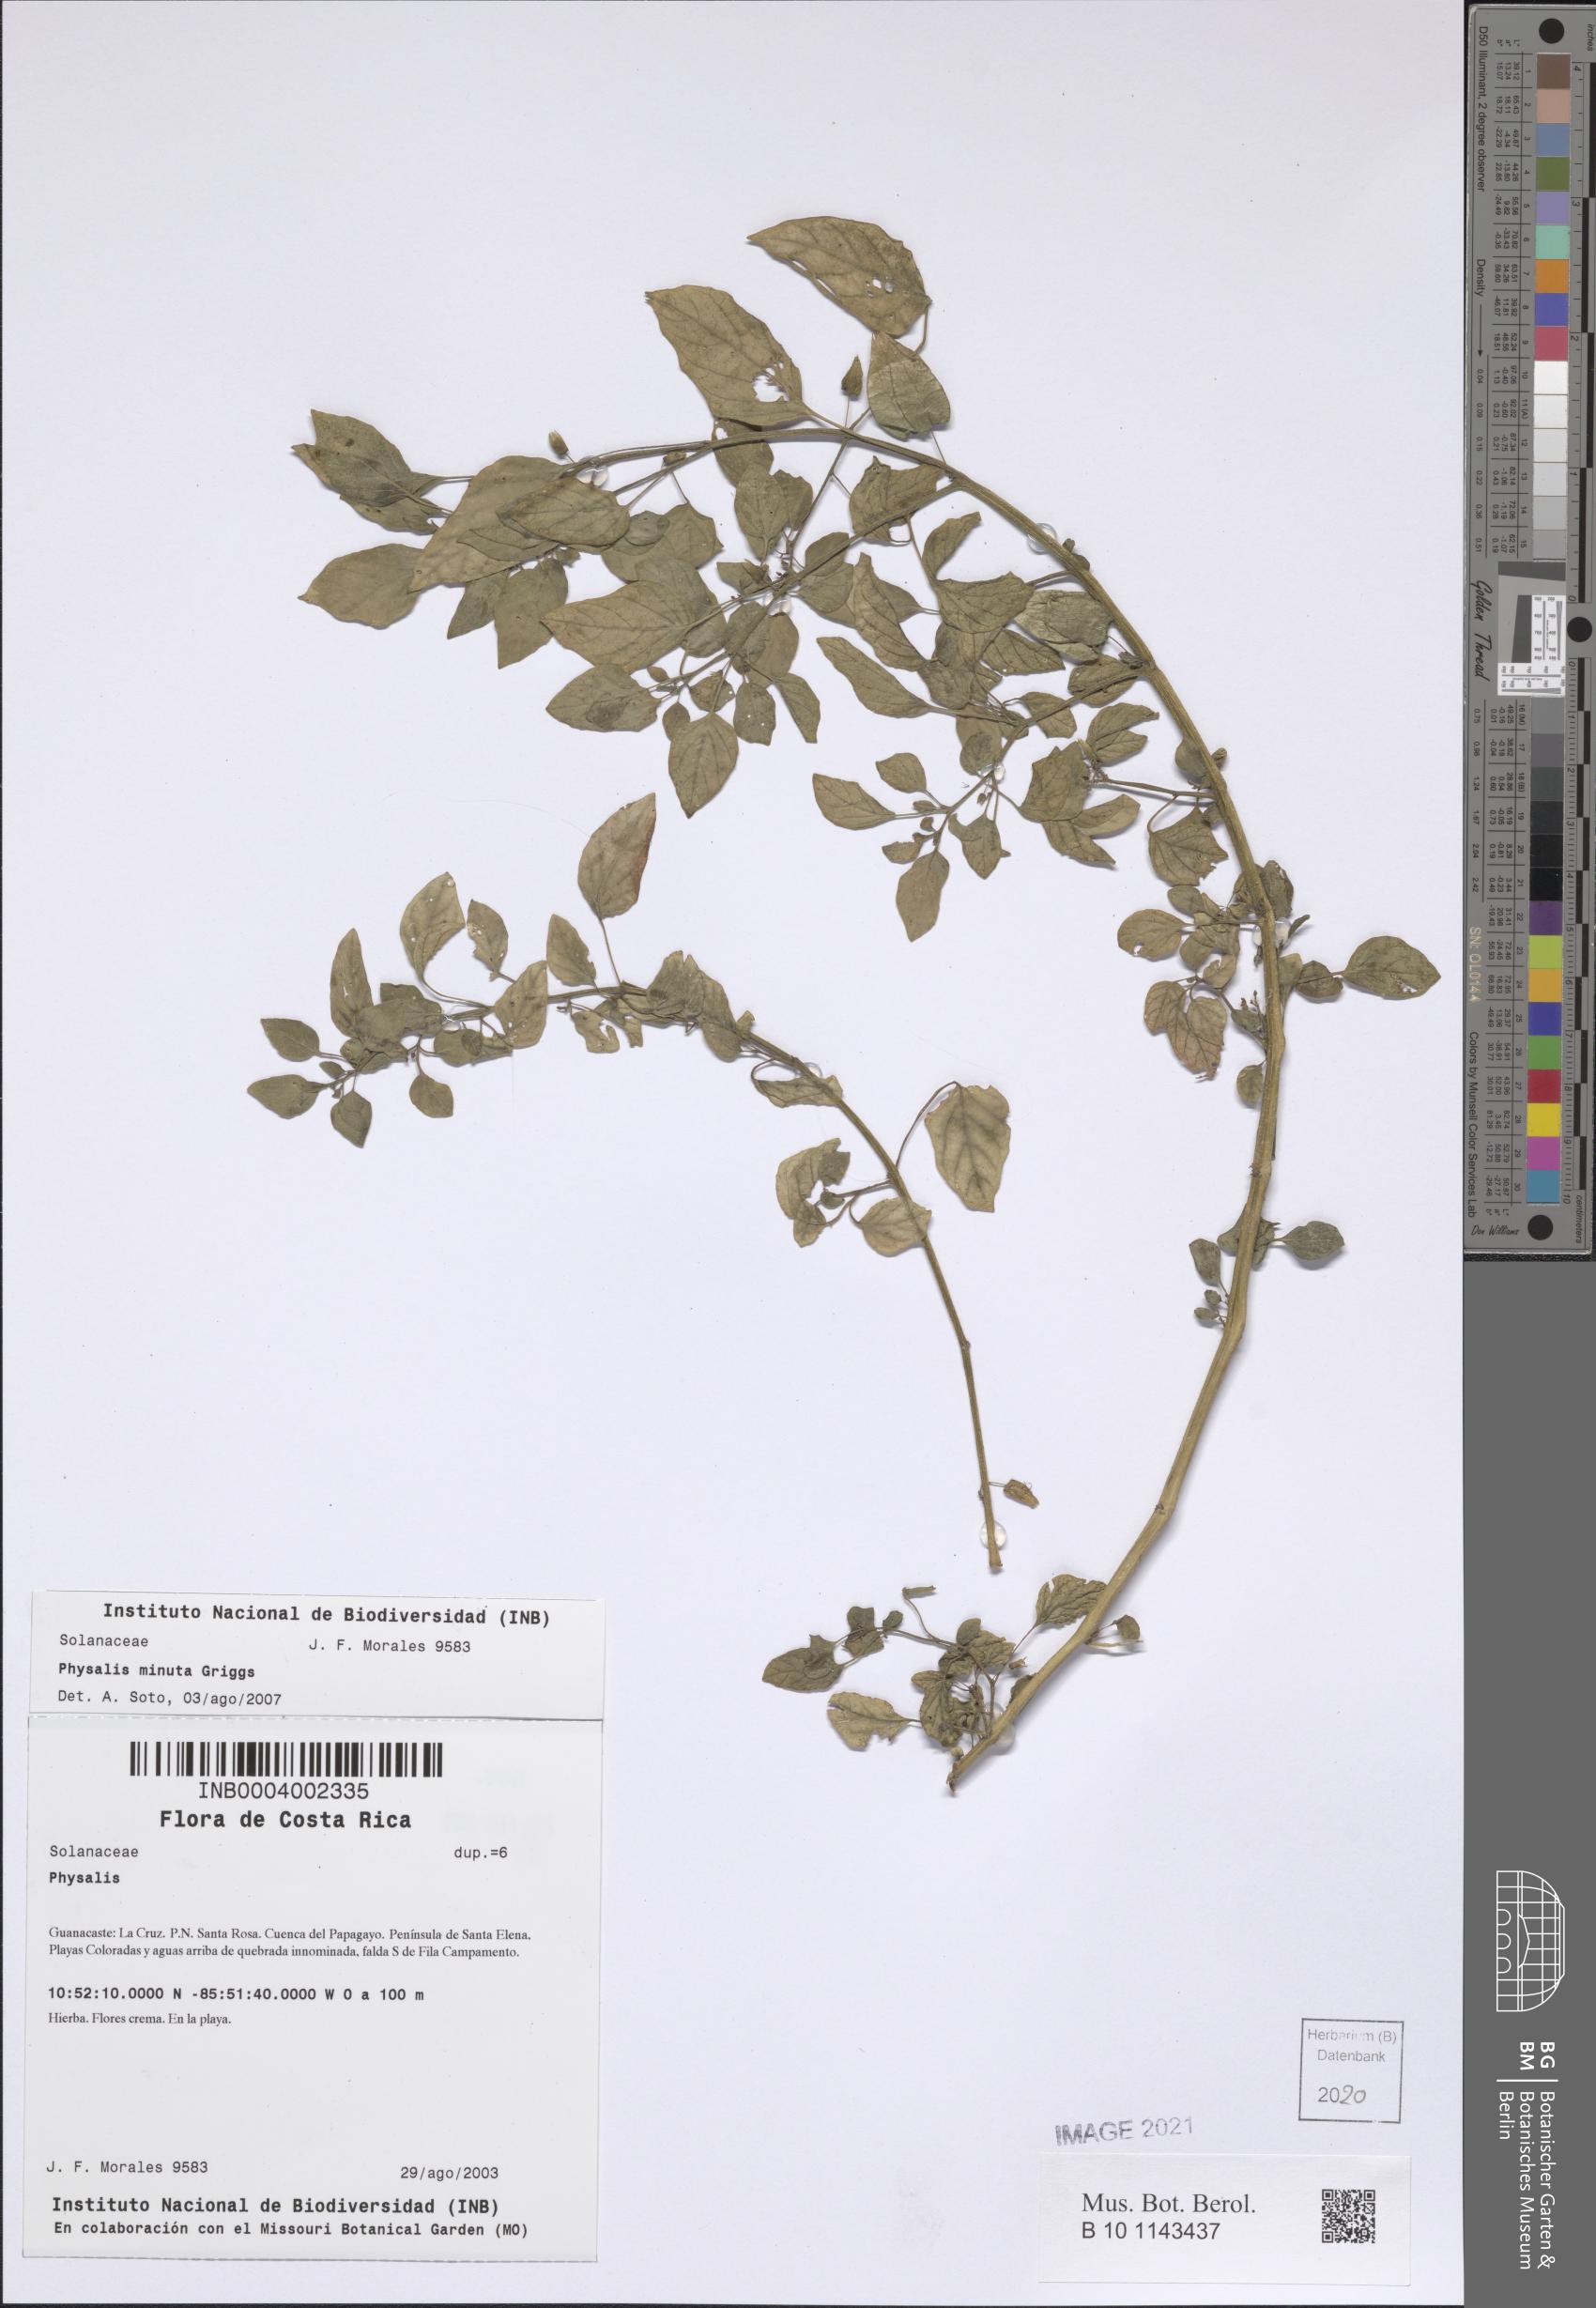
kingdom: Plantae
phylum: Tracheophyta
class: Magnoliopsida
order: Solanales
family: Solanaceae
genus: Physalis
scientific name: Physalis minuta
